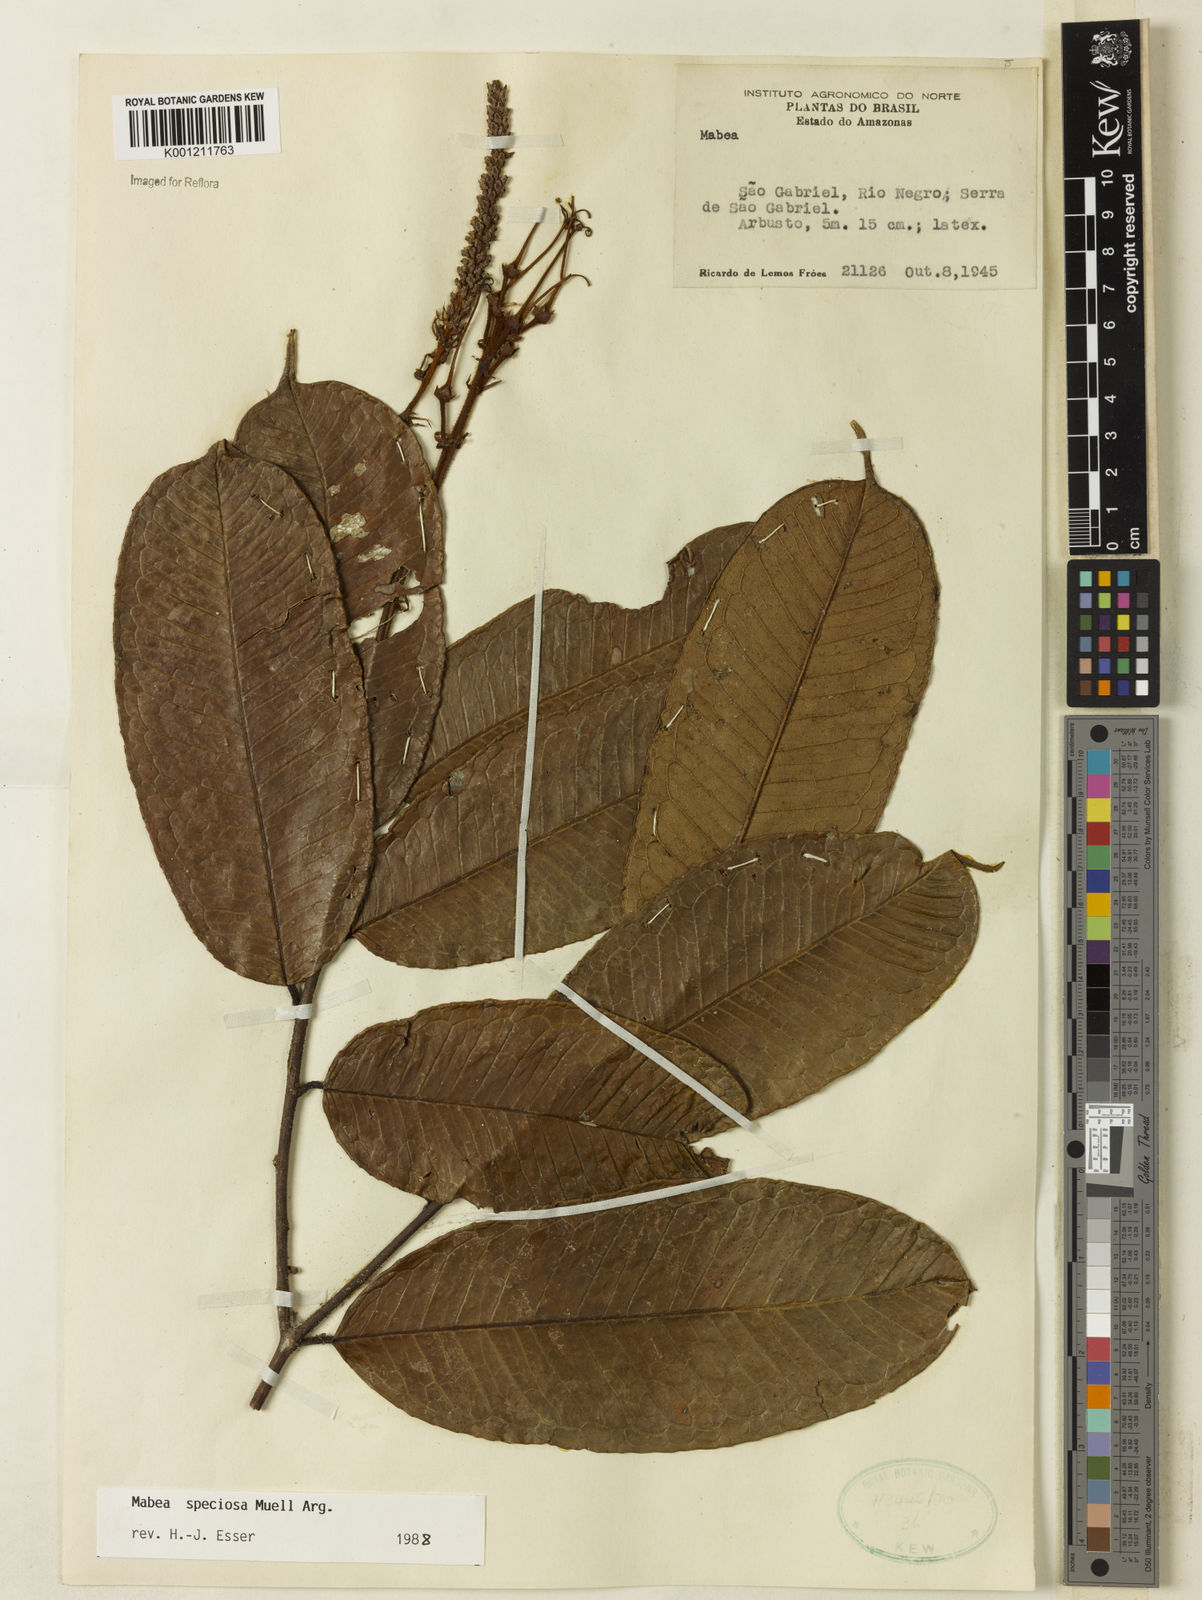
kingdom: Plantae
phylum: Tracheophyta
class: Magnoliopsida
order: Malpighiales
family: Euphorbiaceae
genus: Mabea
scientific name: Mabea
